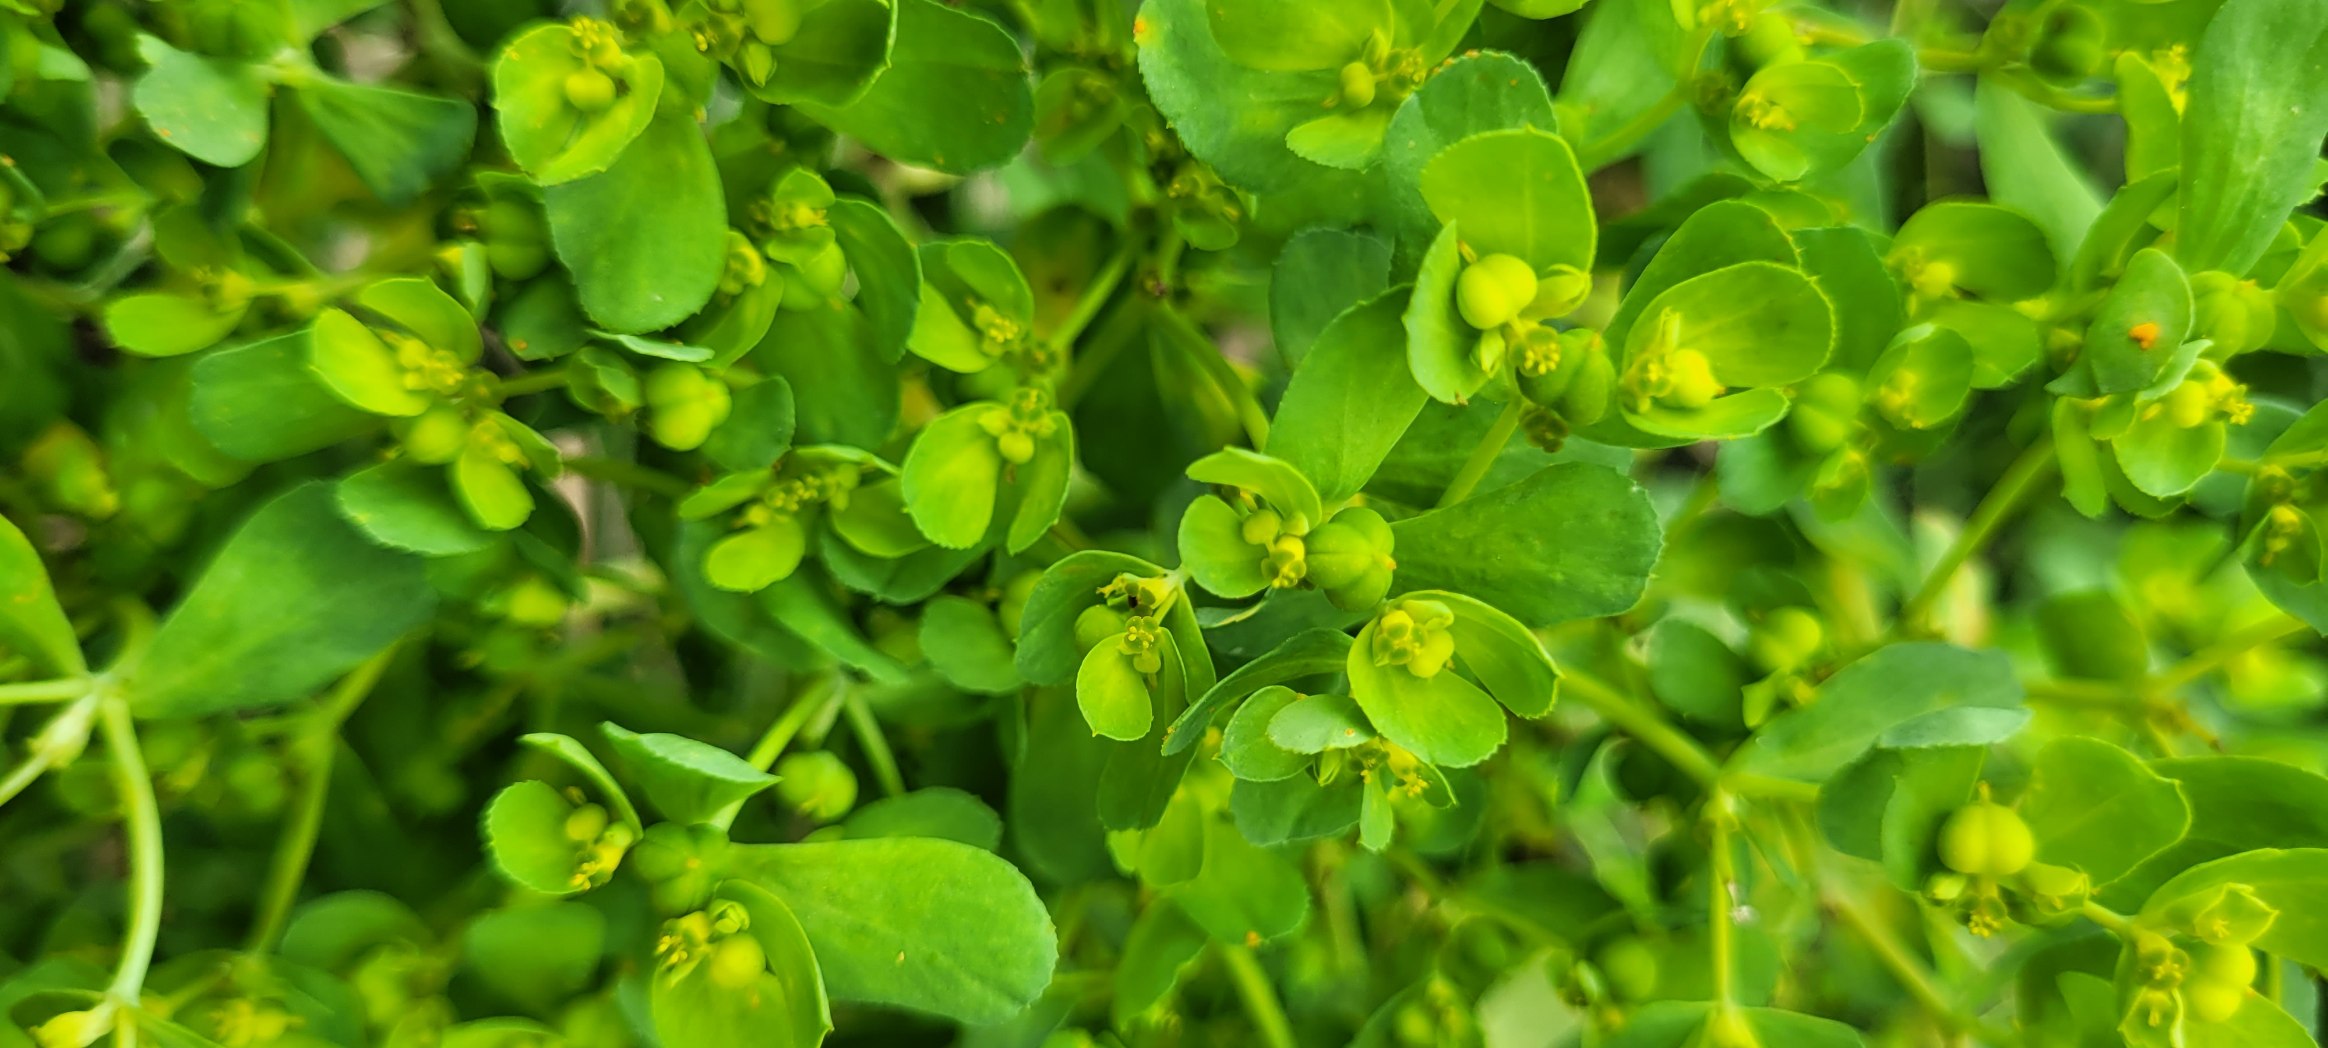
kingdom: Plantae
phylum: Tracheophyta
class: Magnoliopsida
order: Malpighiales
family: Euphorbiaceae
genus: Euphorbia
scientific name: Euphorbia helioscopia
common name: Skærm-vortemælk
